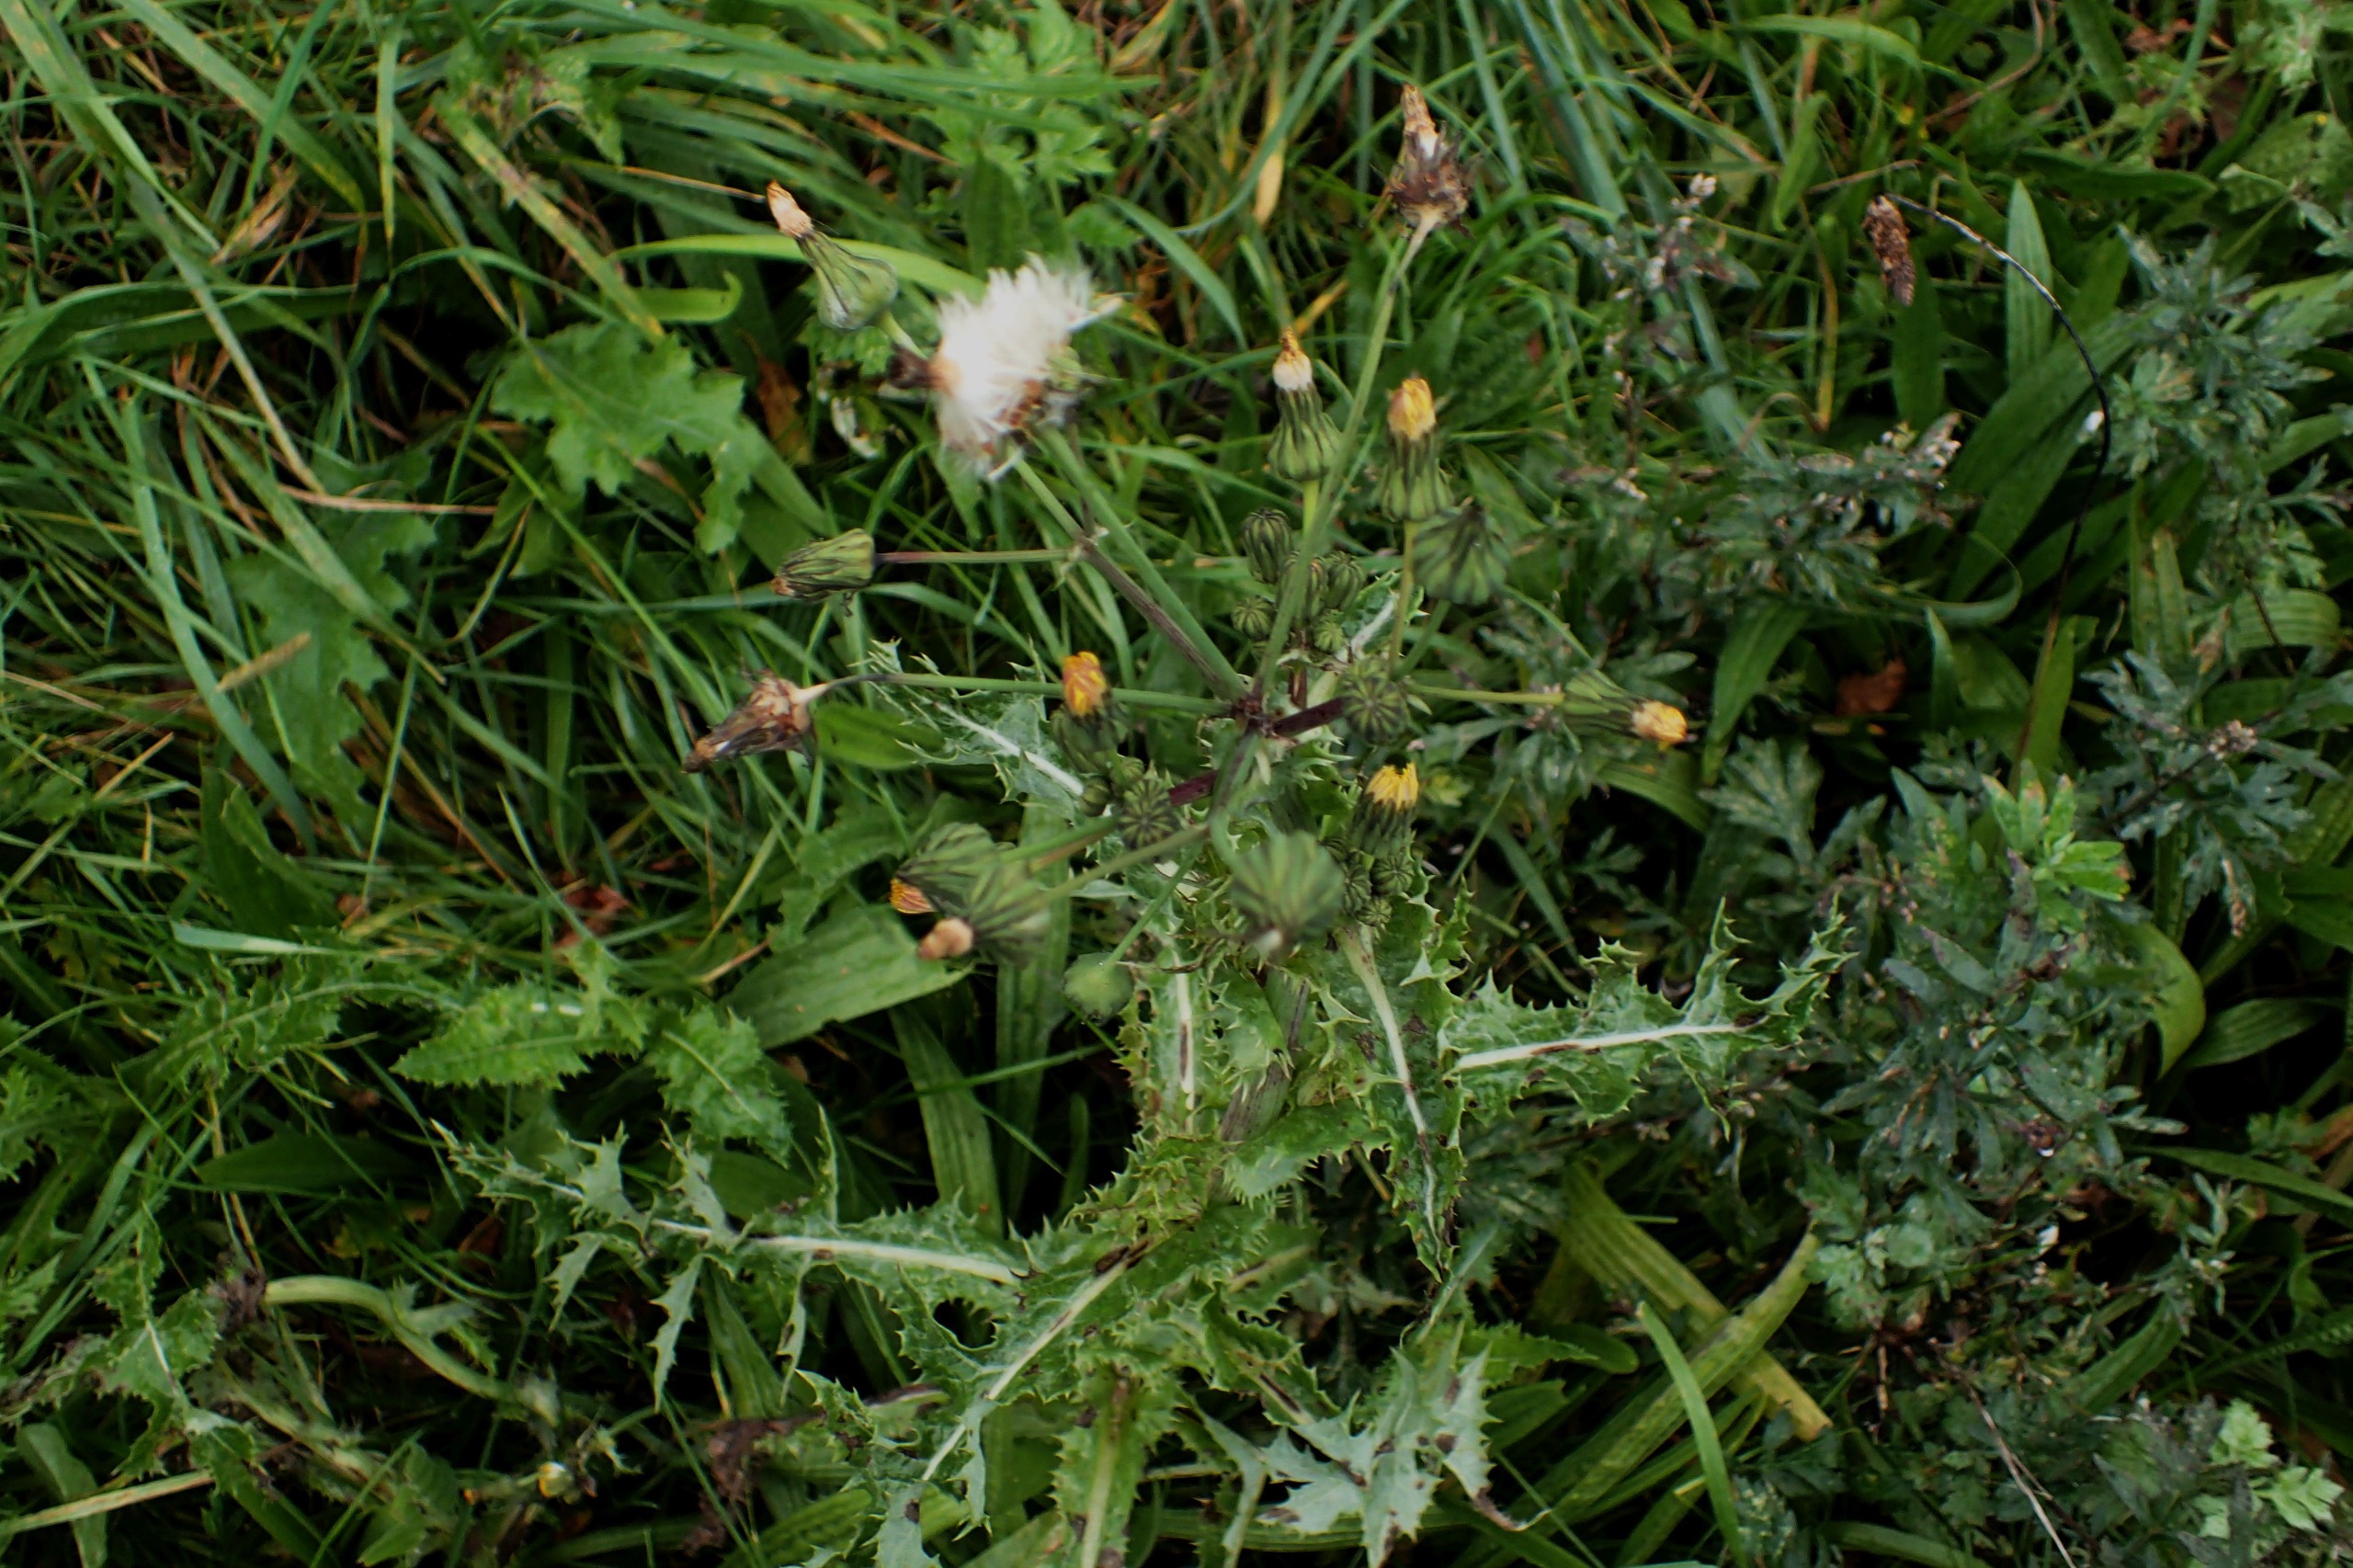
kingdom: Plantae
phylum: Tracheophyta
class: Magnoliopsida
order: Asterales
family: Asteraceae
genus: Sonchus
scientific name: Sonchus asper
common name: Ru svinemælk
